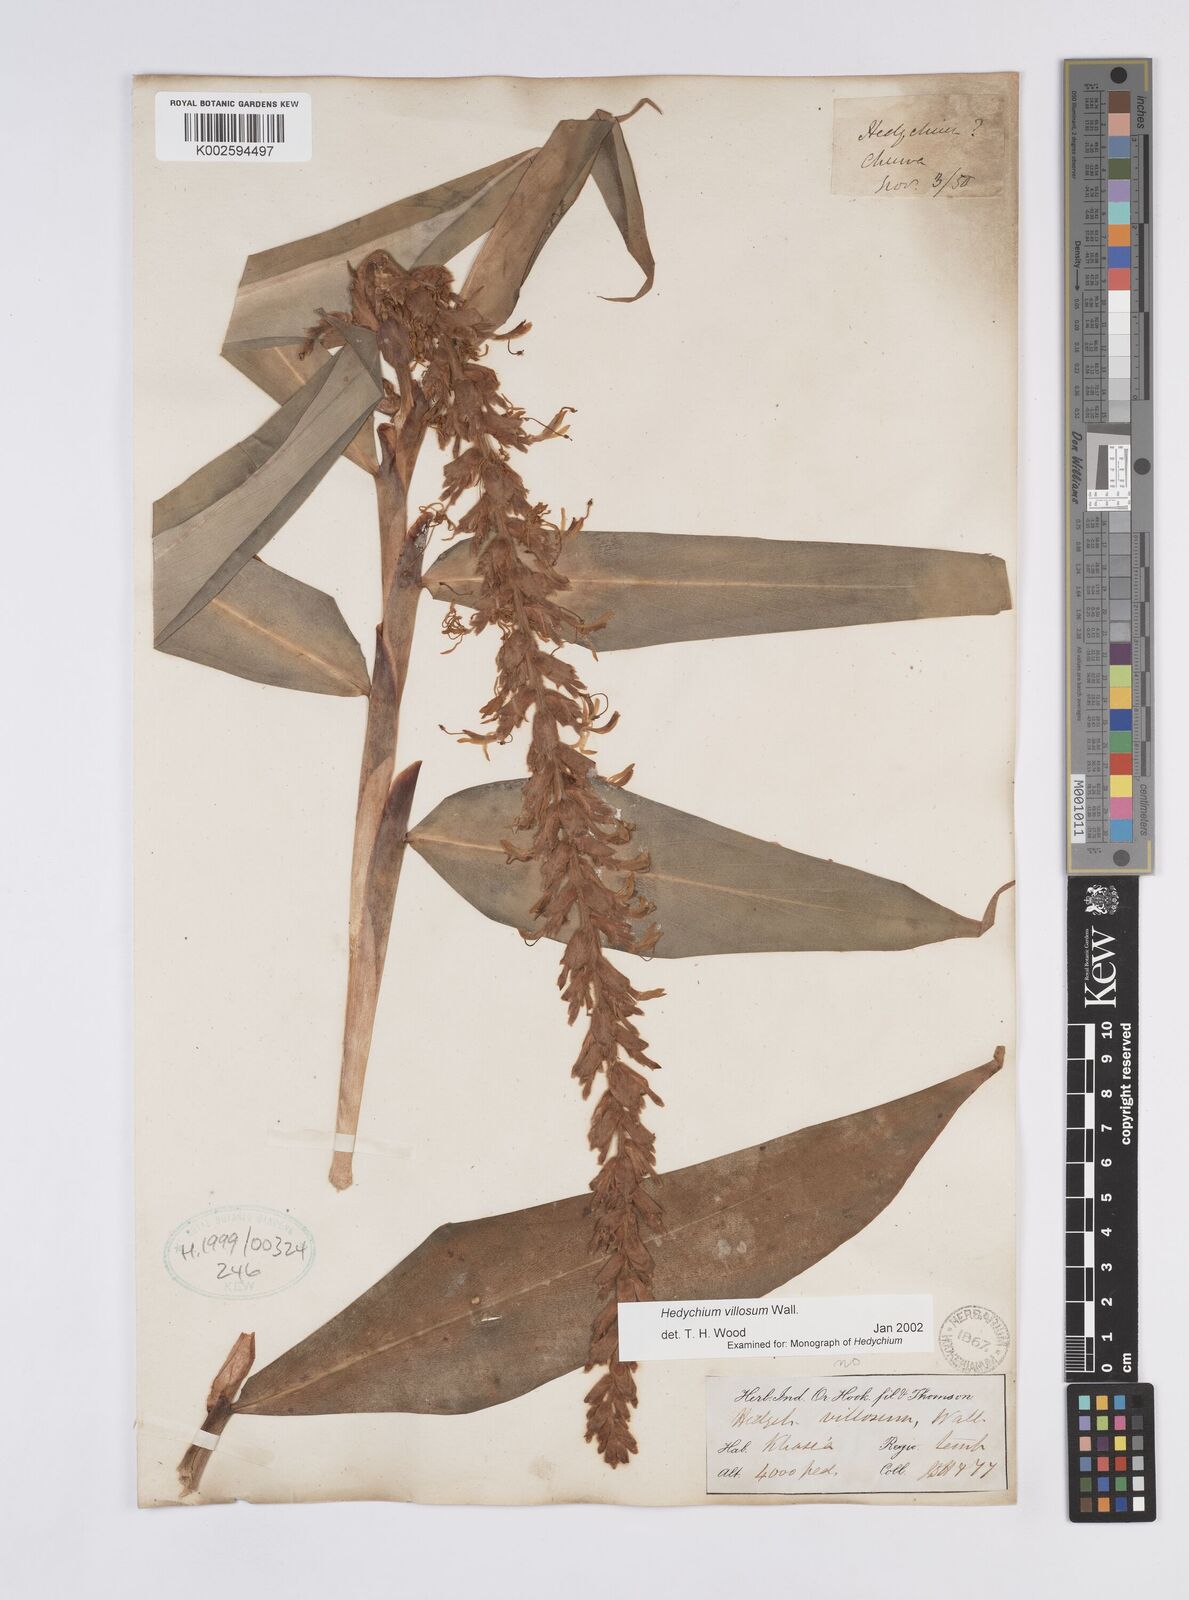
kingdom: Plantae
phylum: Tracheophyta
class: Liliopsida
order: Zingiberales
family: Zingiberaceae
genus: Hedychium
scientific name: Hedychium villosum
